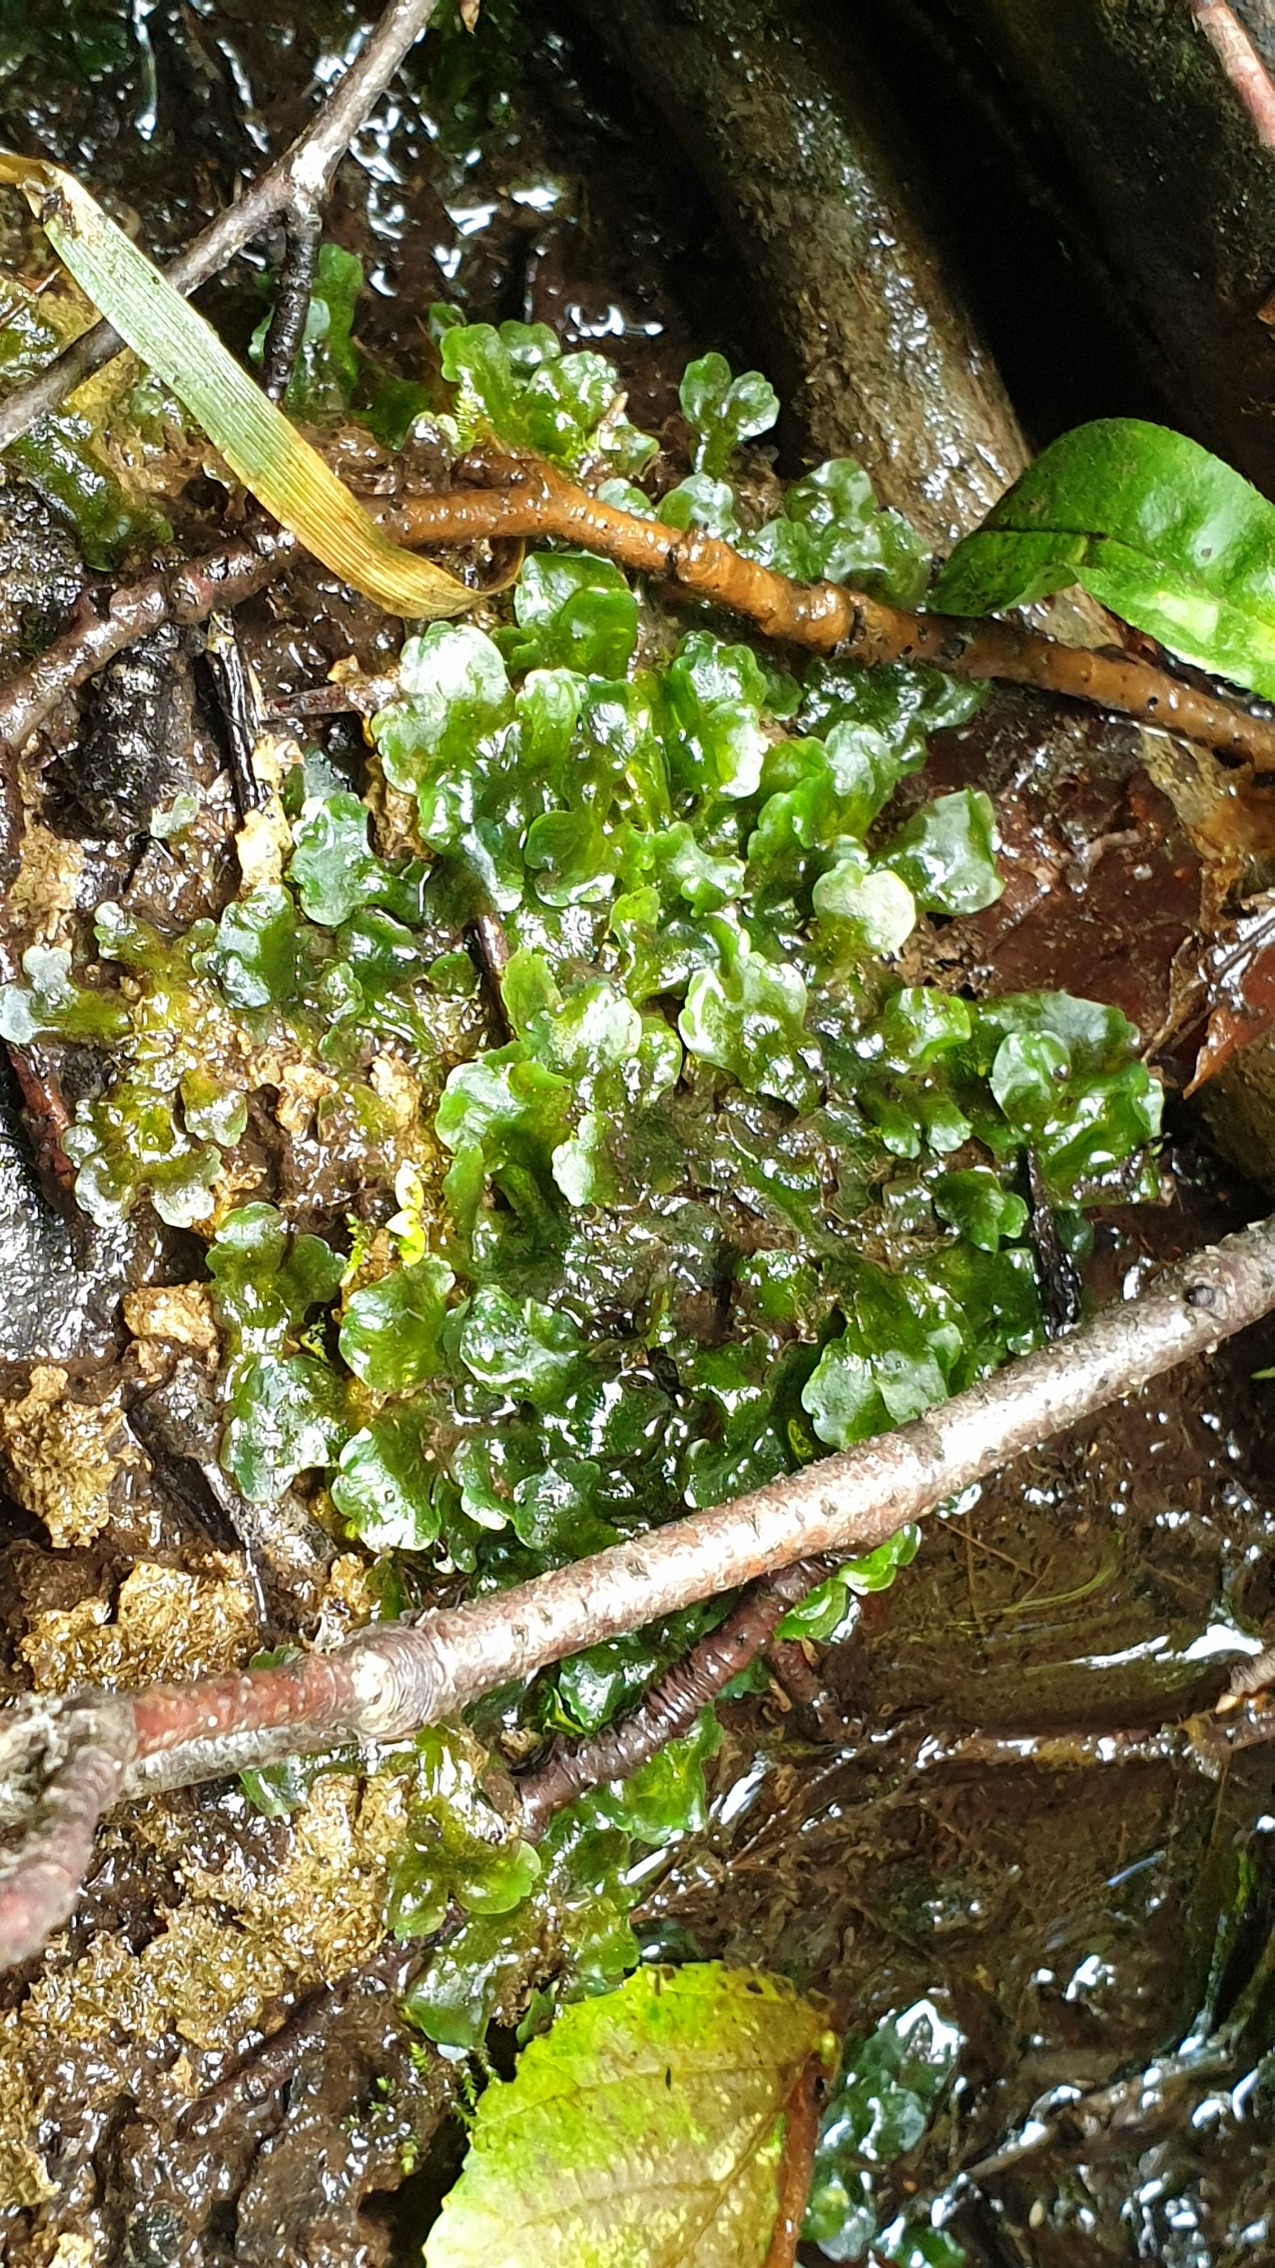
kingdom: Plantae
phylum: Marchantiophyta
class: Jungermanniopsida
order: Pelliales
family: Pelliaceae
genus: Pellia
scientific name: Pellia epiphylla
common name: Enbo ribbeløv
